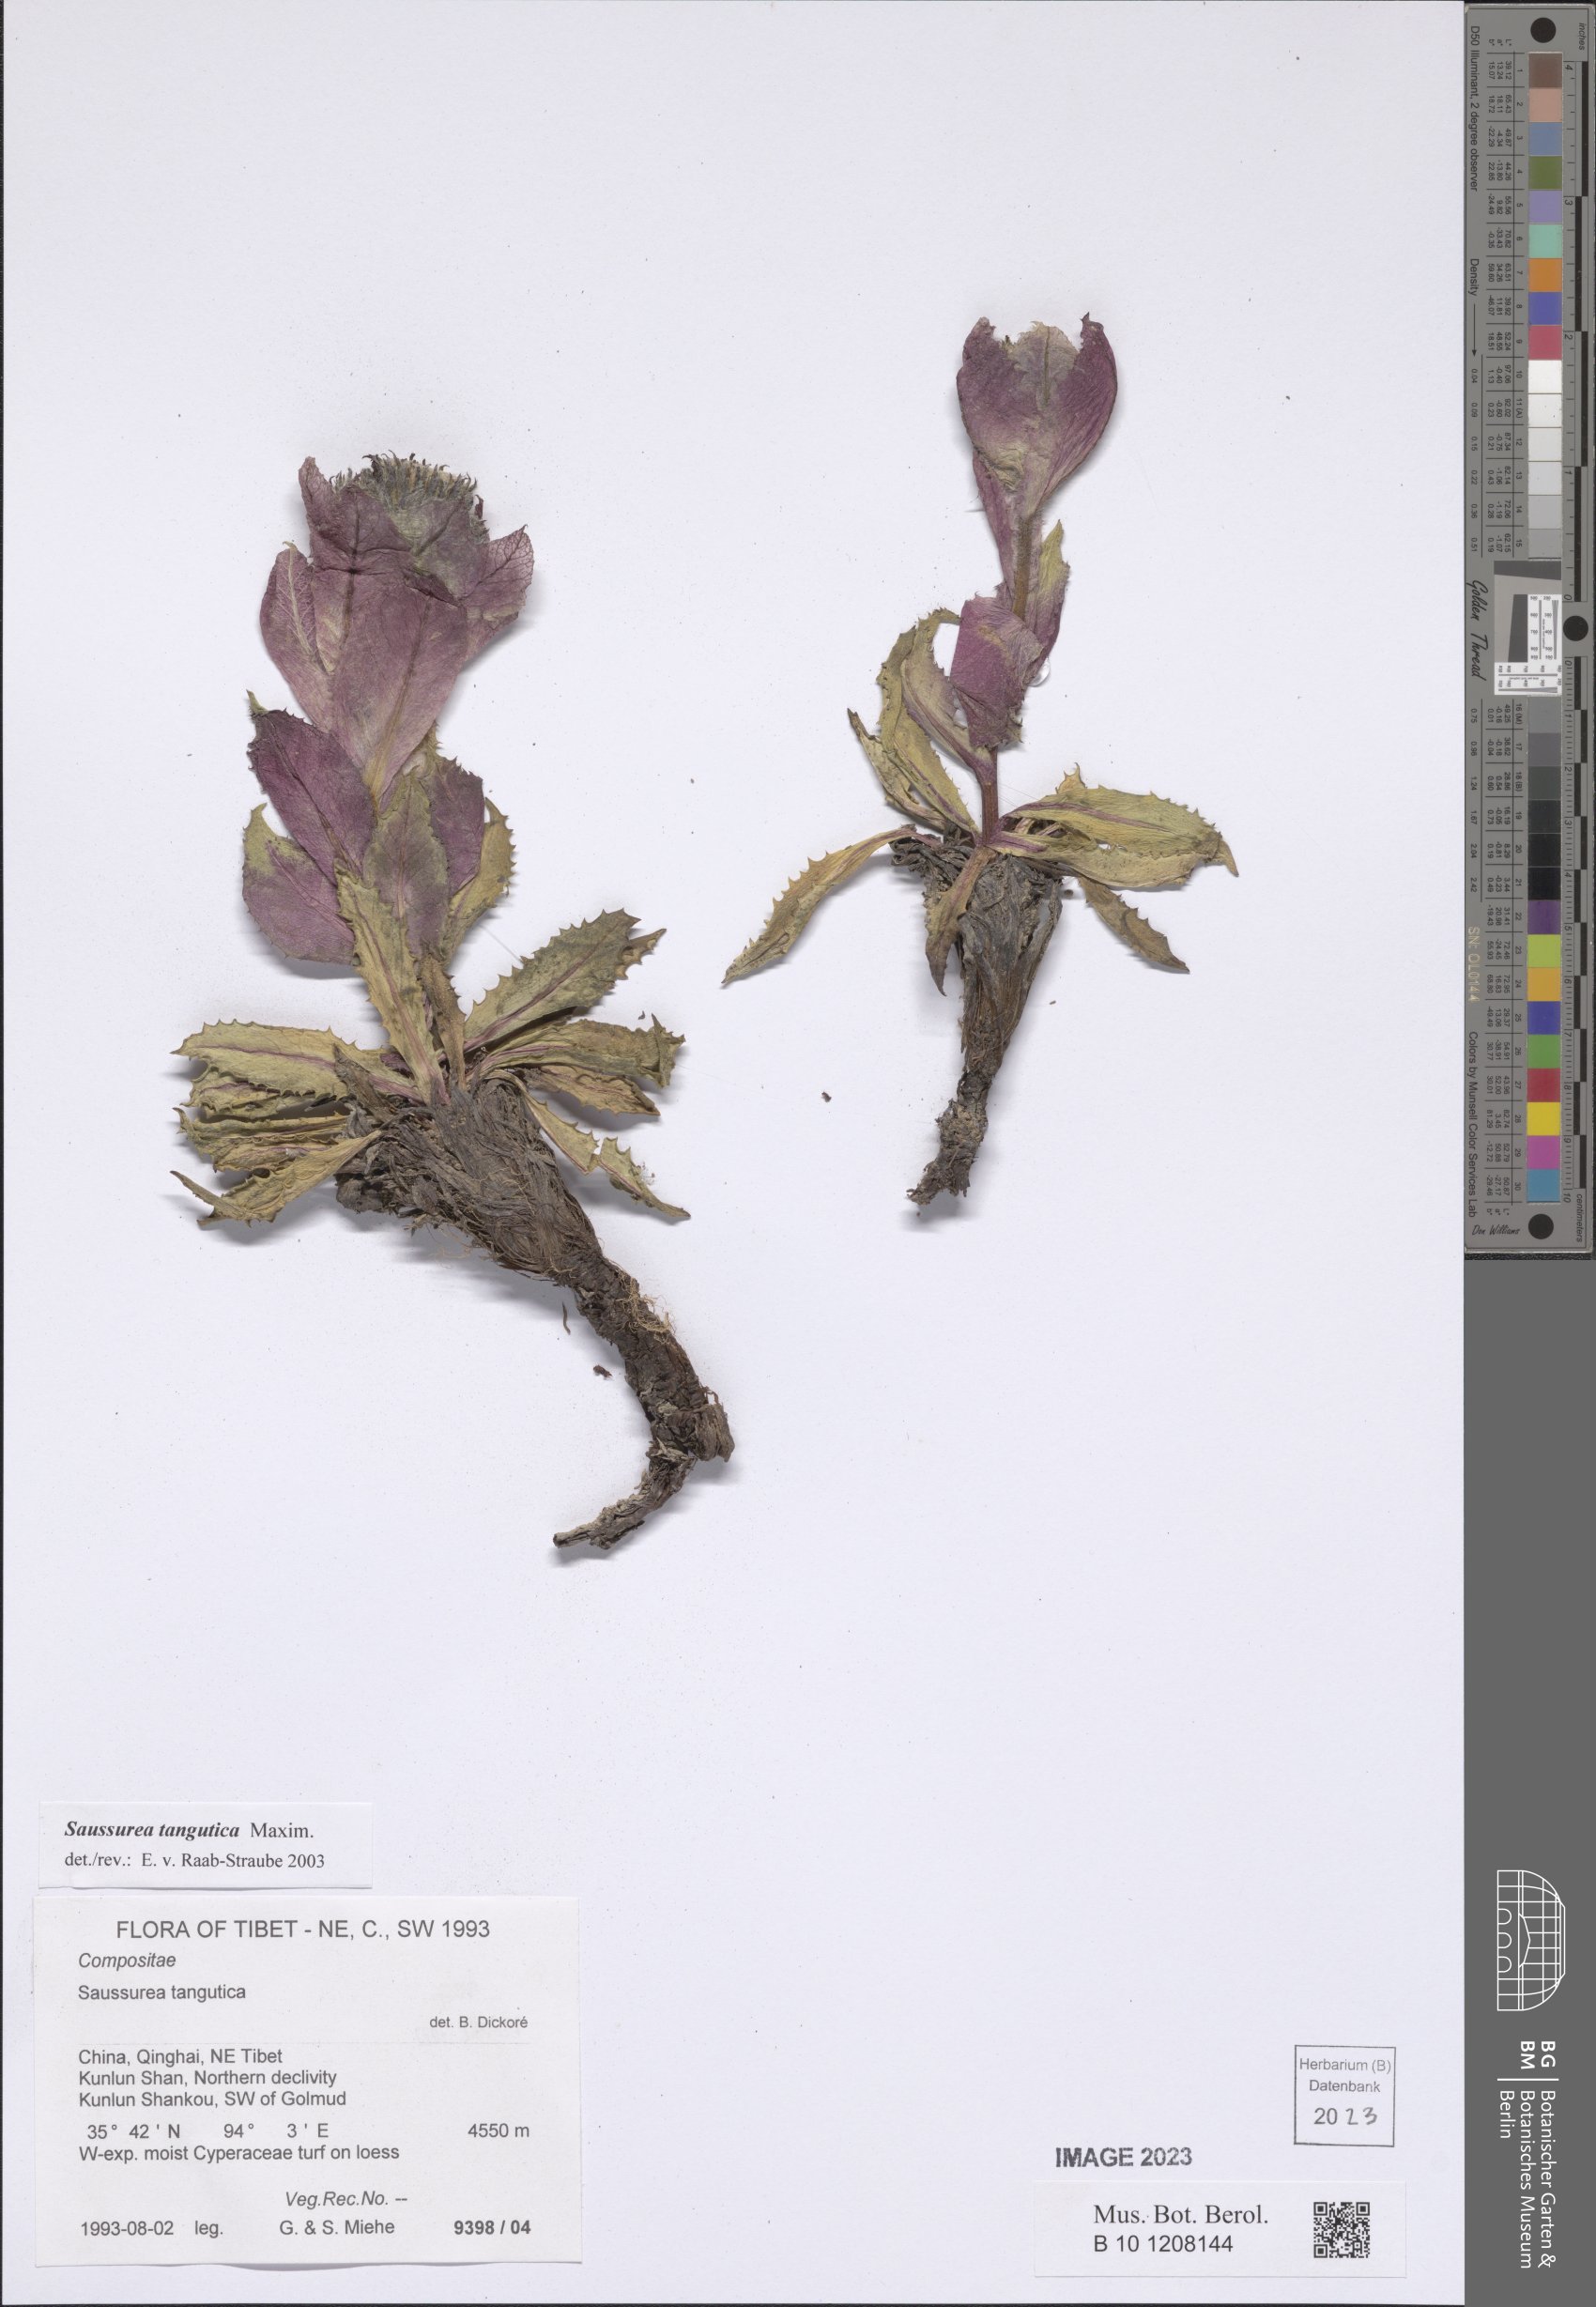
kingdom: Plantae
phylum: Tracheophyta
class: Magnoliopsida
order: Asterales
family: Asteraceae
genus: Saussurea
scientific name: Saussurea tangutica
